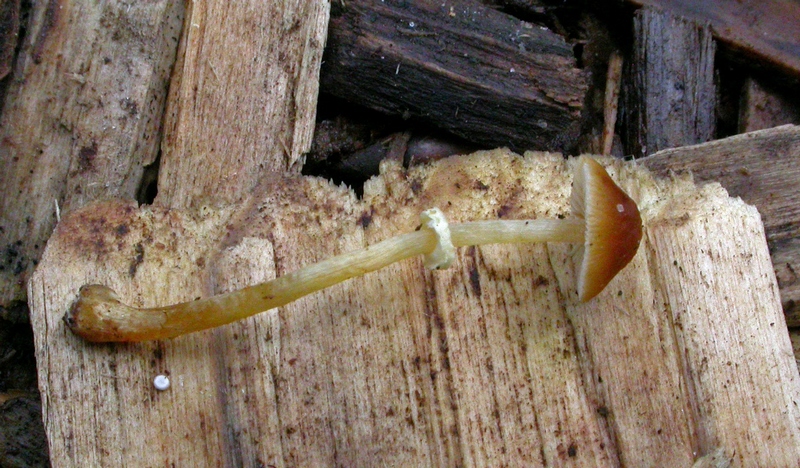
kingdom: Fungi
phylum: Basidiomycota
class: Agaricomycetes
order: Agaricales
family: Bolbitiaceae
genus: Pholiotina
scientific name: Pholiotina teneroides
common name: tosporet dansehat
